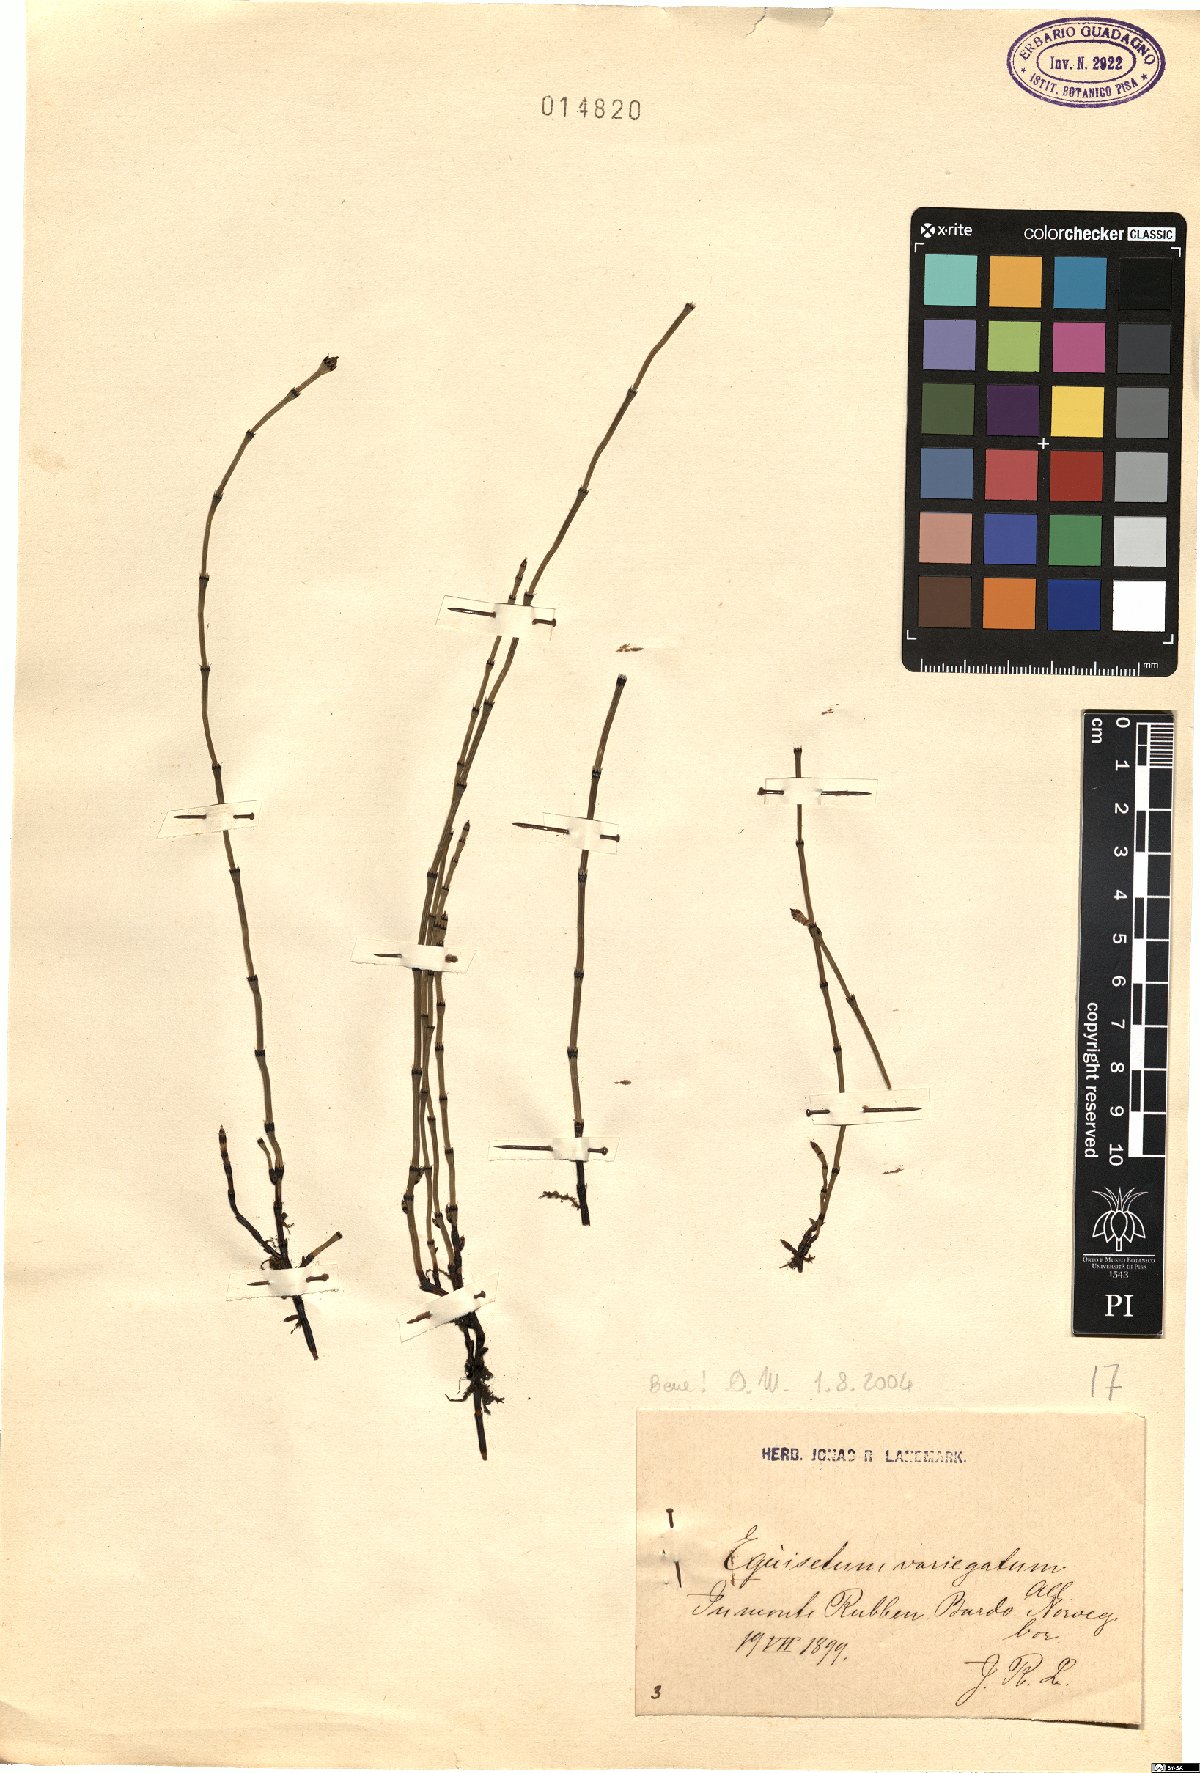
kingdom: Plantae
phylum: Tracheophyta
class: Polypodiopsida
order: Equisetales
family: Equisetaceae
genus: Equisetum
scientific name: Equisetum variegatum
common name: Variegated horsetail
